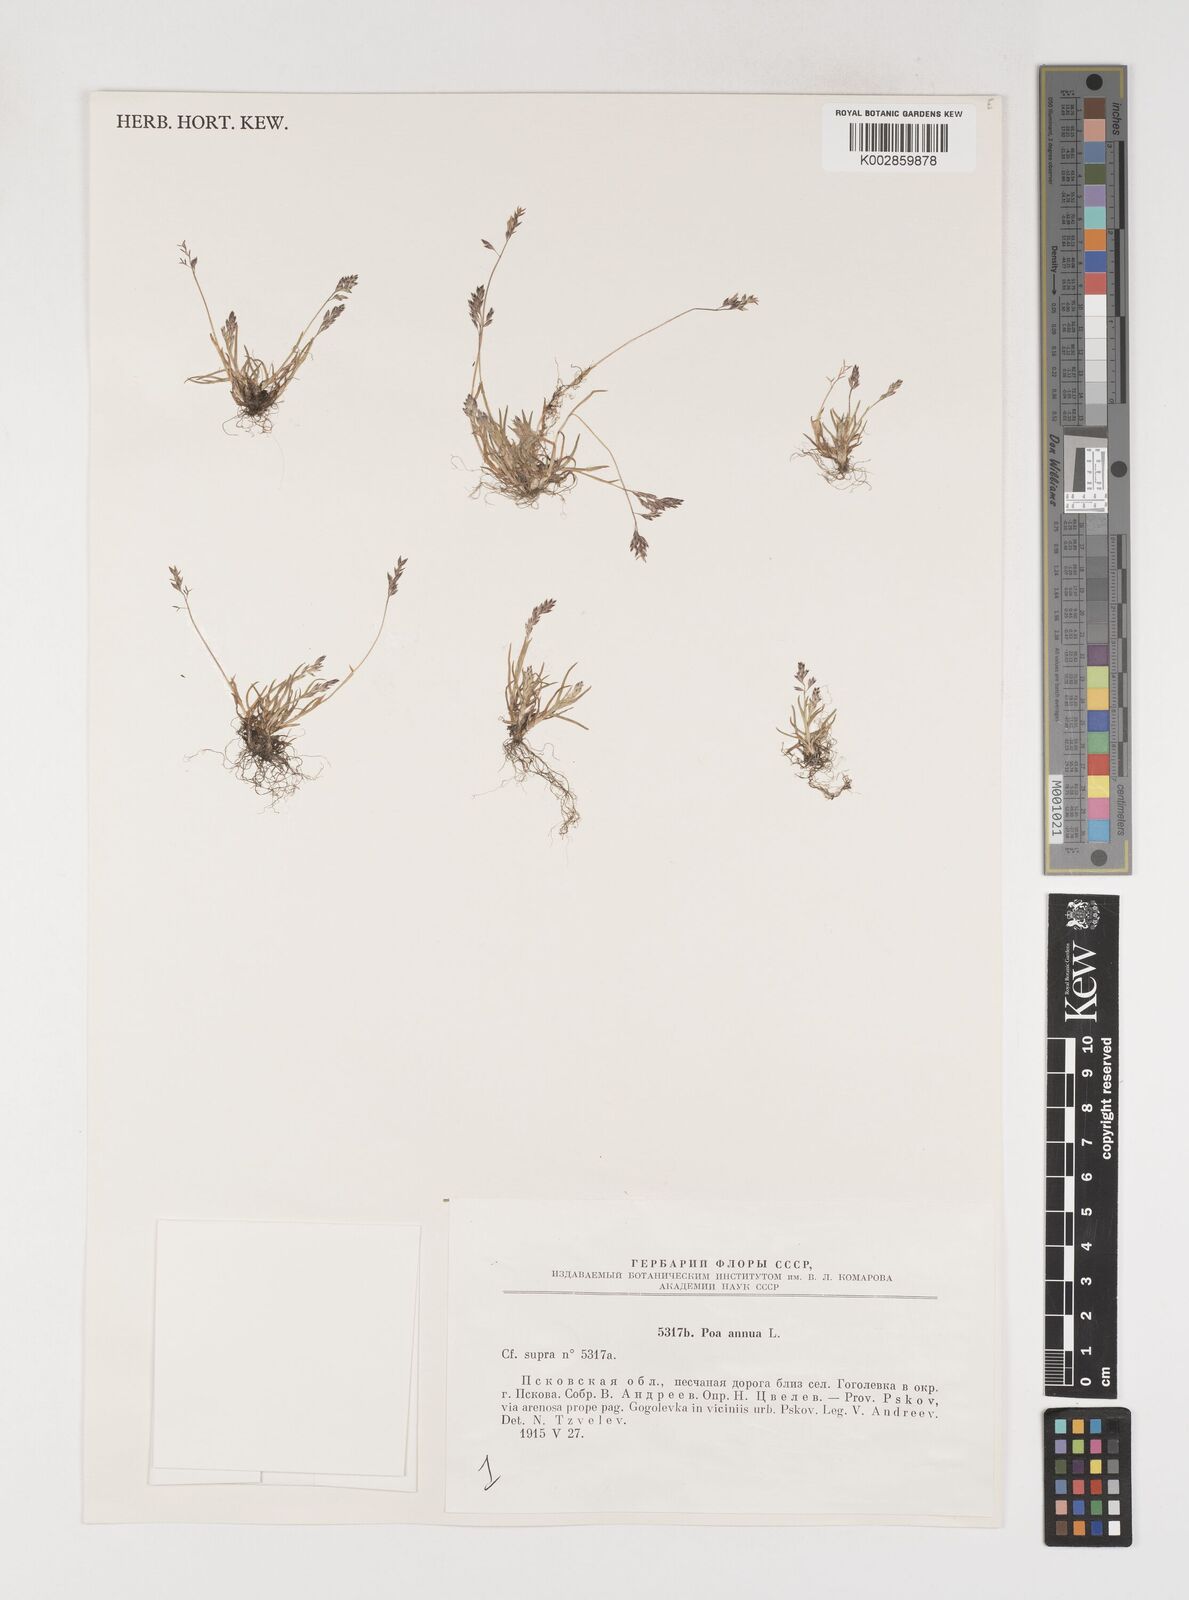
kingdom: Plantae
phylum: Tracheophyta
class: Liliopsida
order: Poales
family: Poaceae
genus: Poa
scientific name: Poa annua
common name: Annual bluegrass
